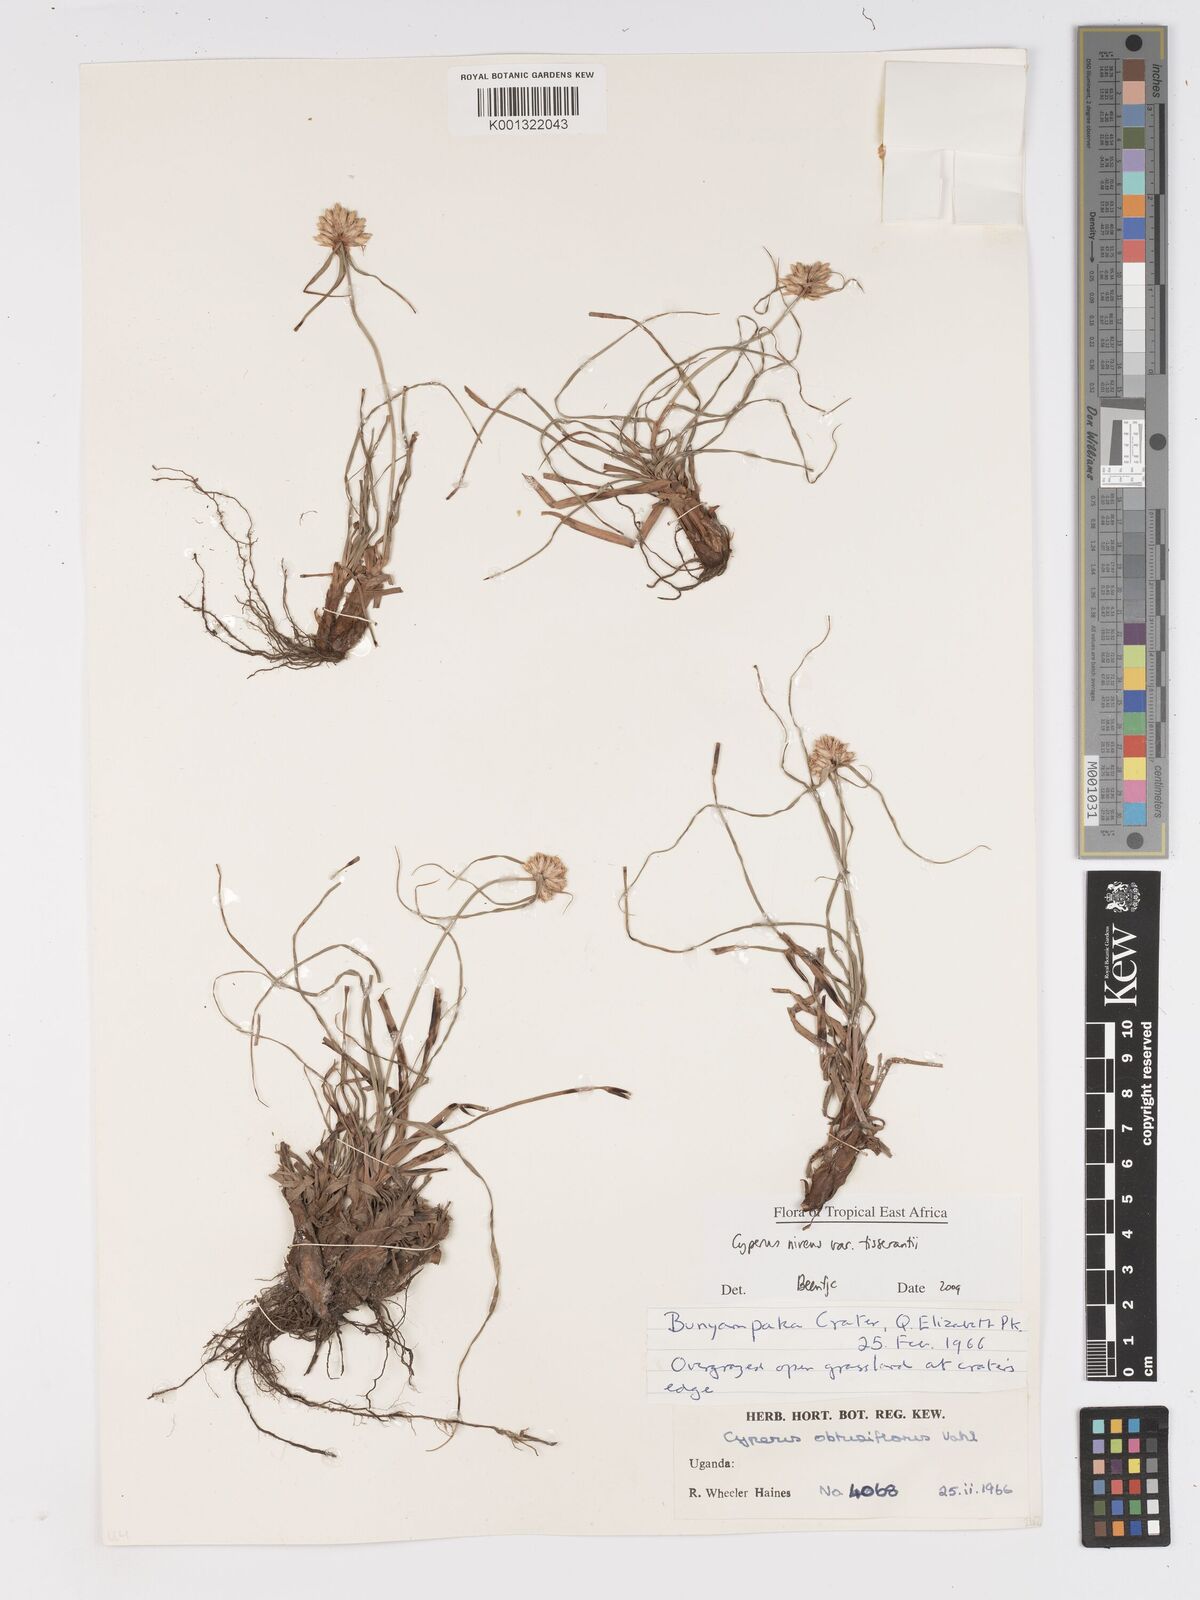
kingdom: Plantae
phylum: Tracheophyta
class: Liliopsida
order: Poales
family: Cyperaceae
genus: Cyperus
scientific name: Cyperus niveus
